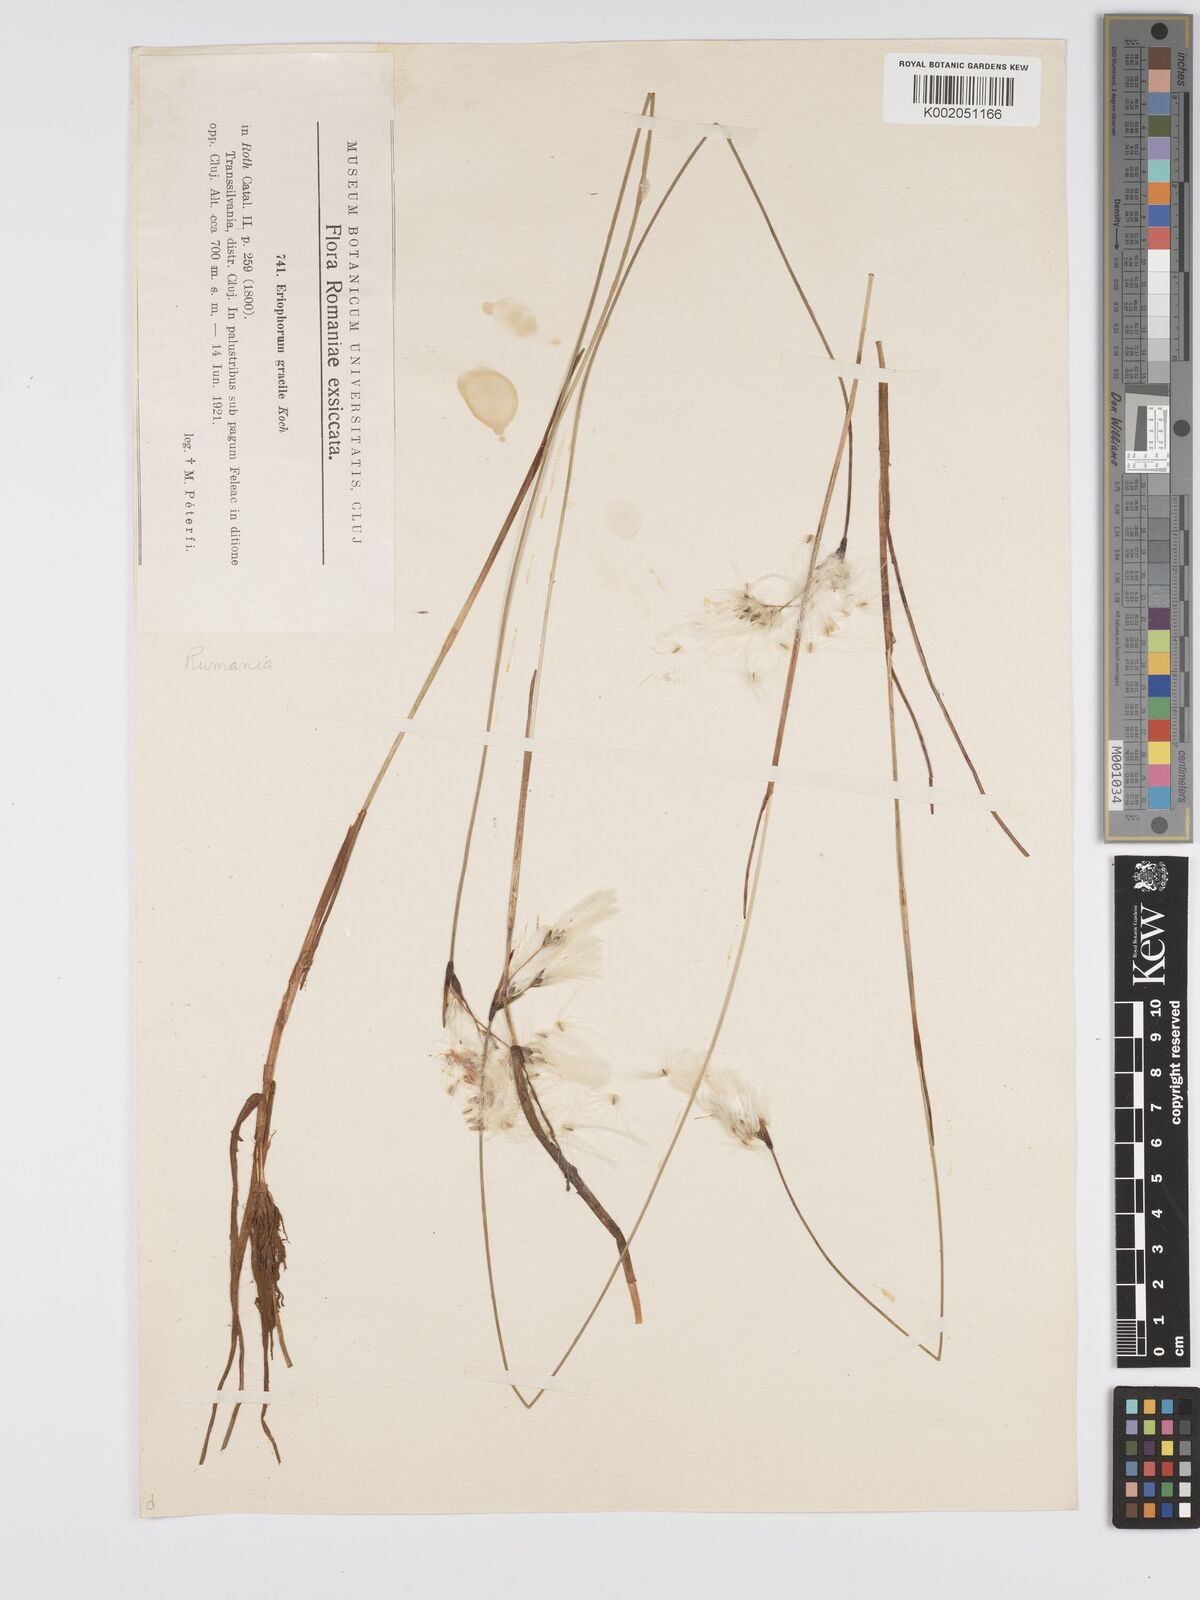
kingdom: Plantae
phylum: Tracheophyta
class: Liliopsida
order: Poales
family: Cyperaceae
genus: Eriophorum
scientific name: Eriophorum gracile
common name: Slender cottongrass
